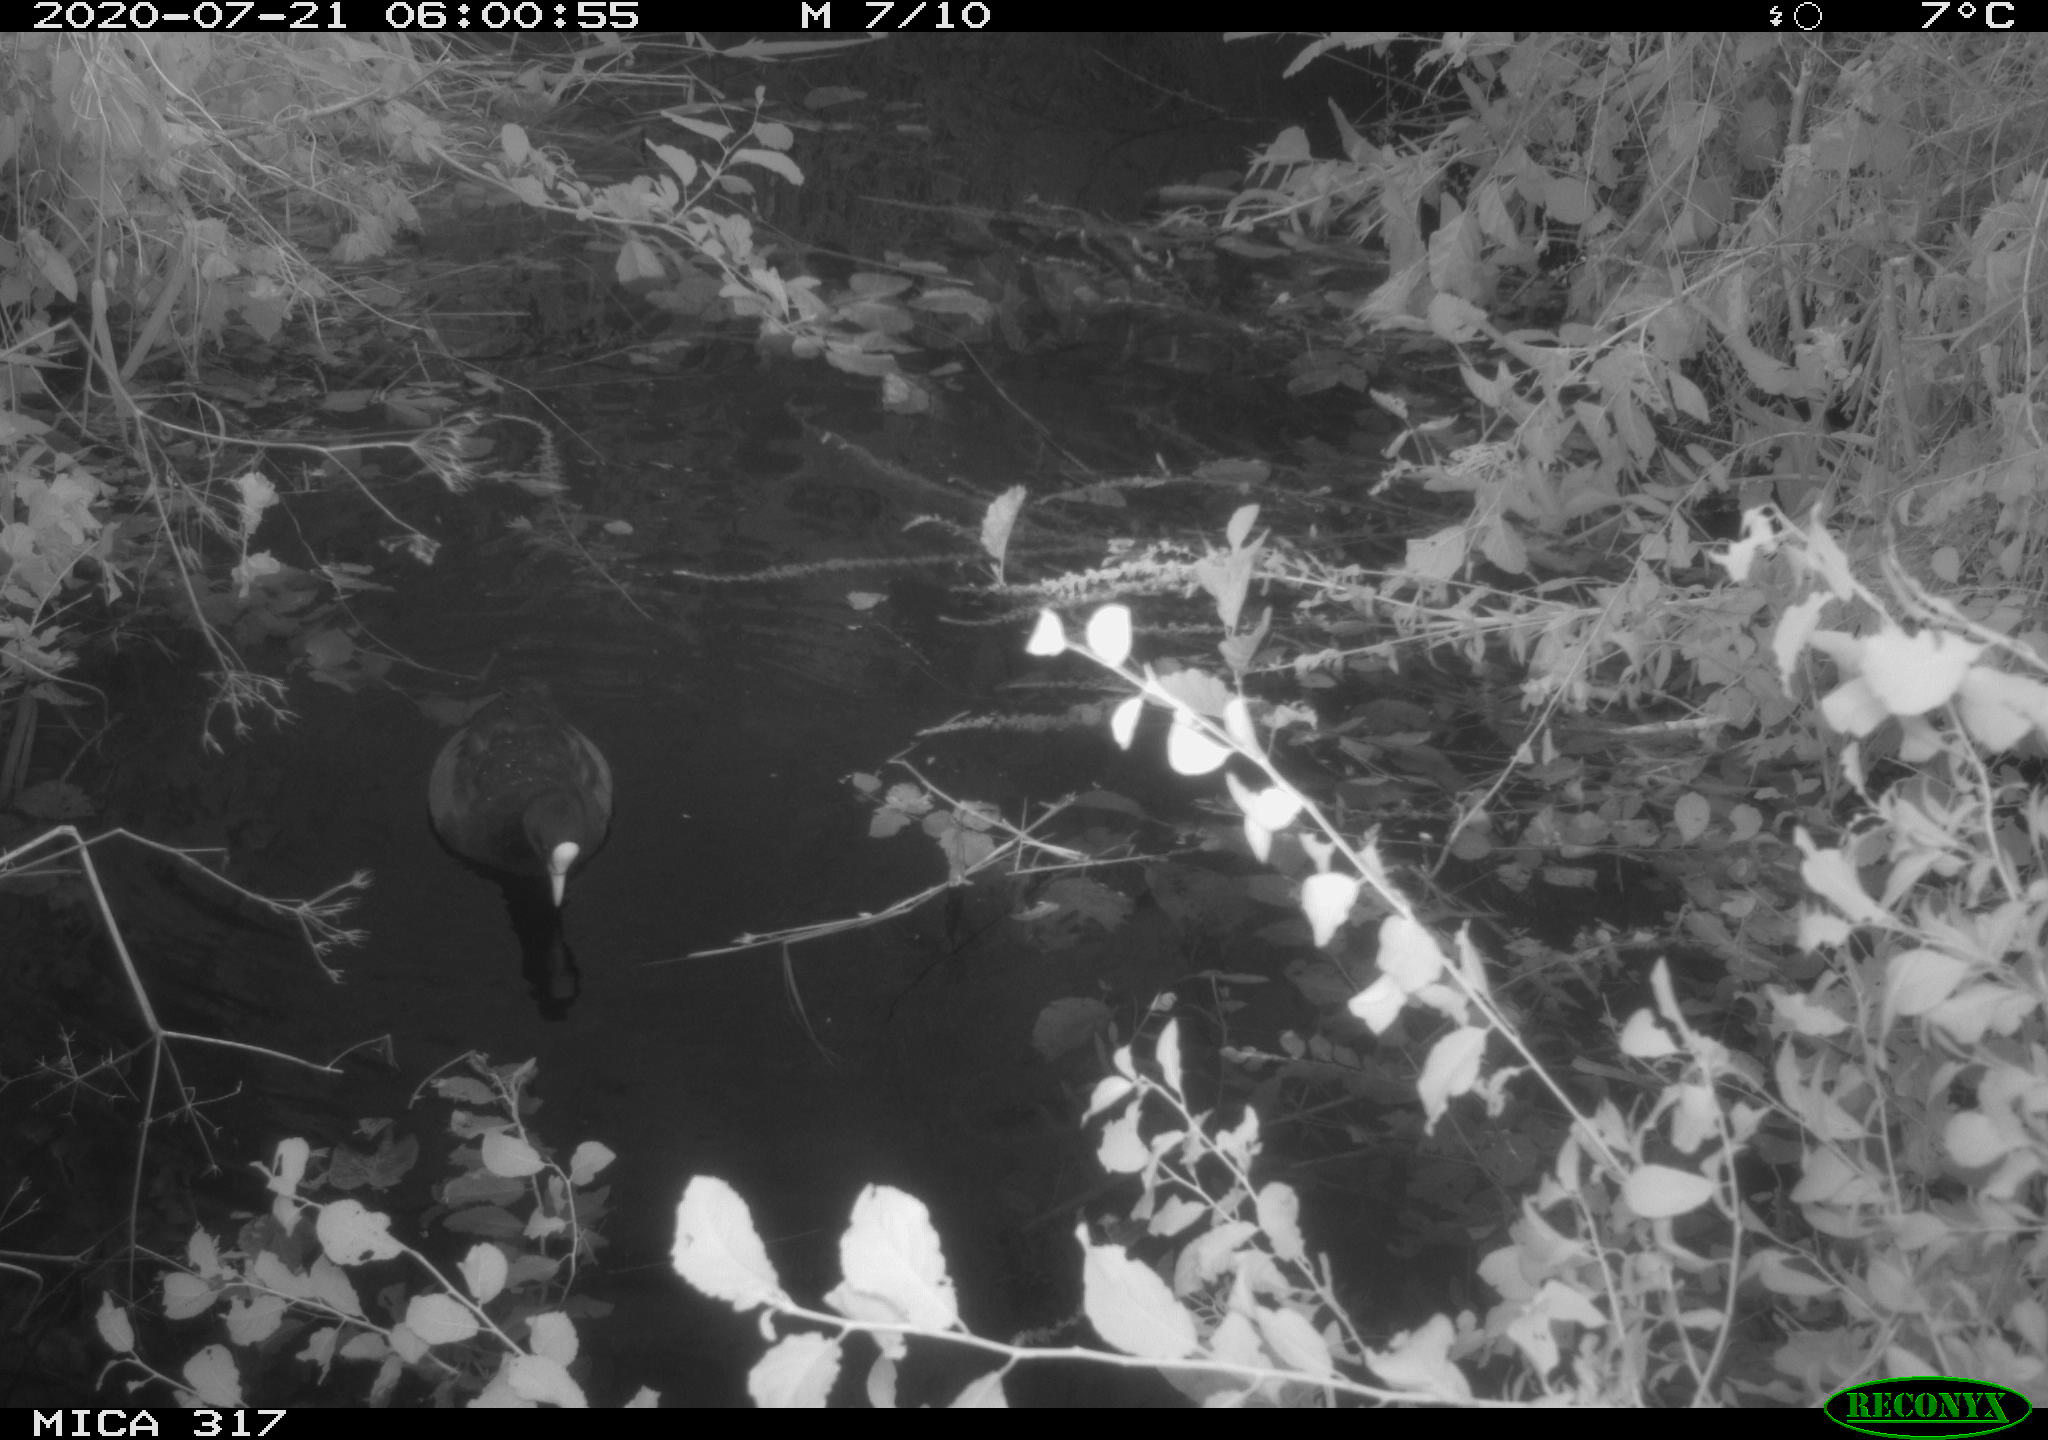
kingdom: Animalia
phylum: Chordata
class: Aves
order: Gruiformes
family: Rallidae
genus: Fulica
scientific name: Fulica atra
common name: Eurasian coot
